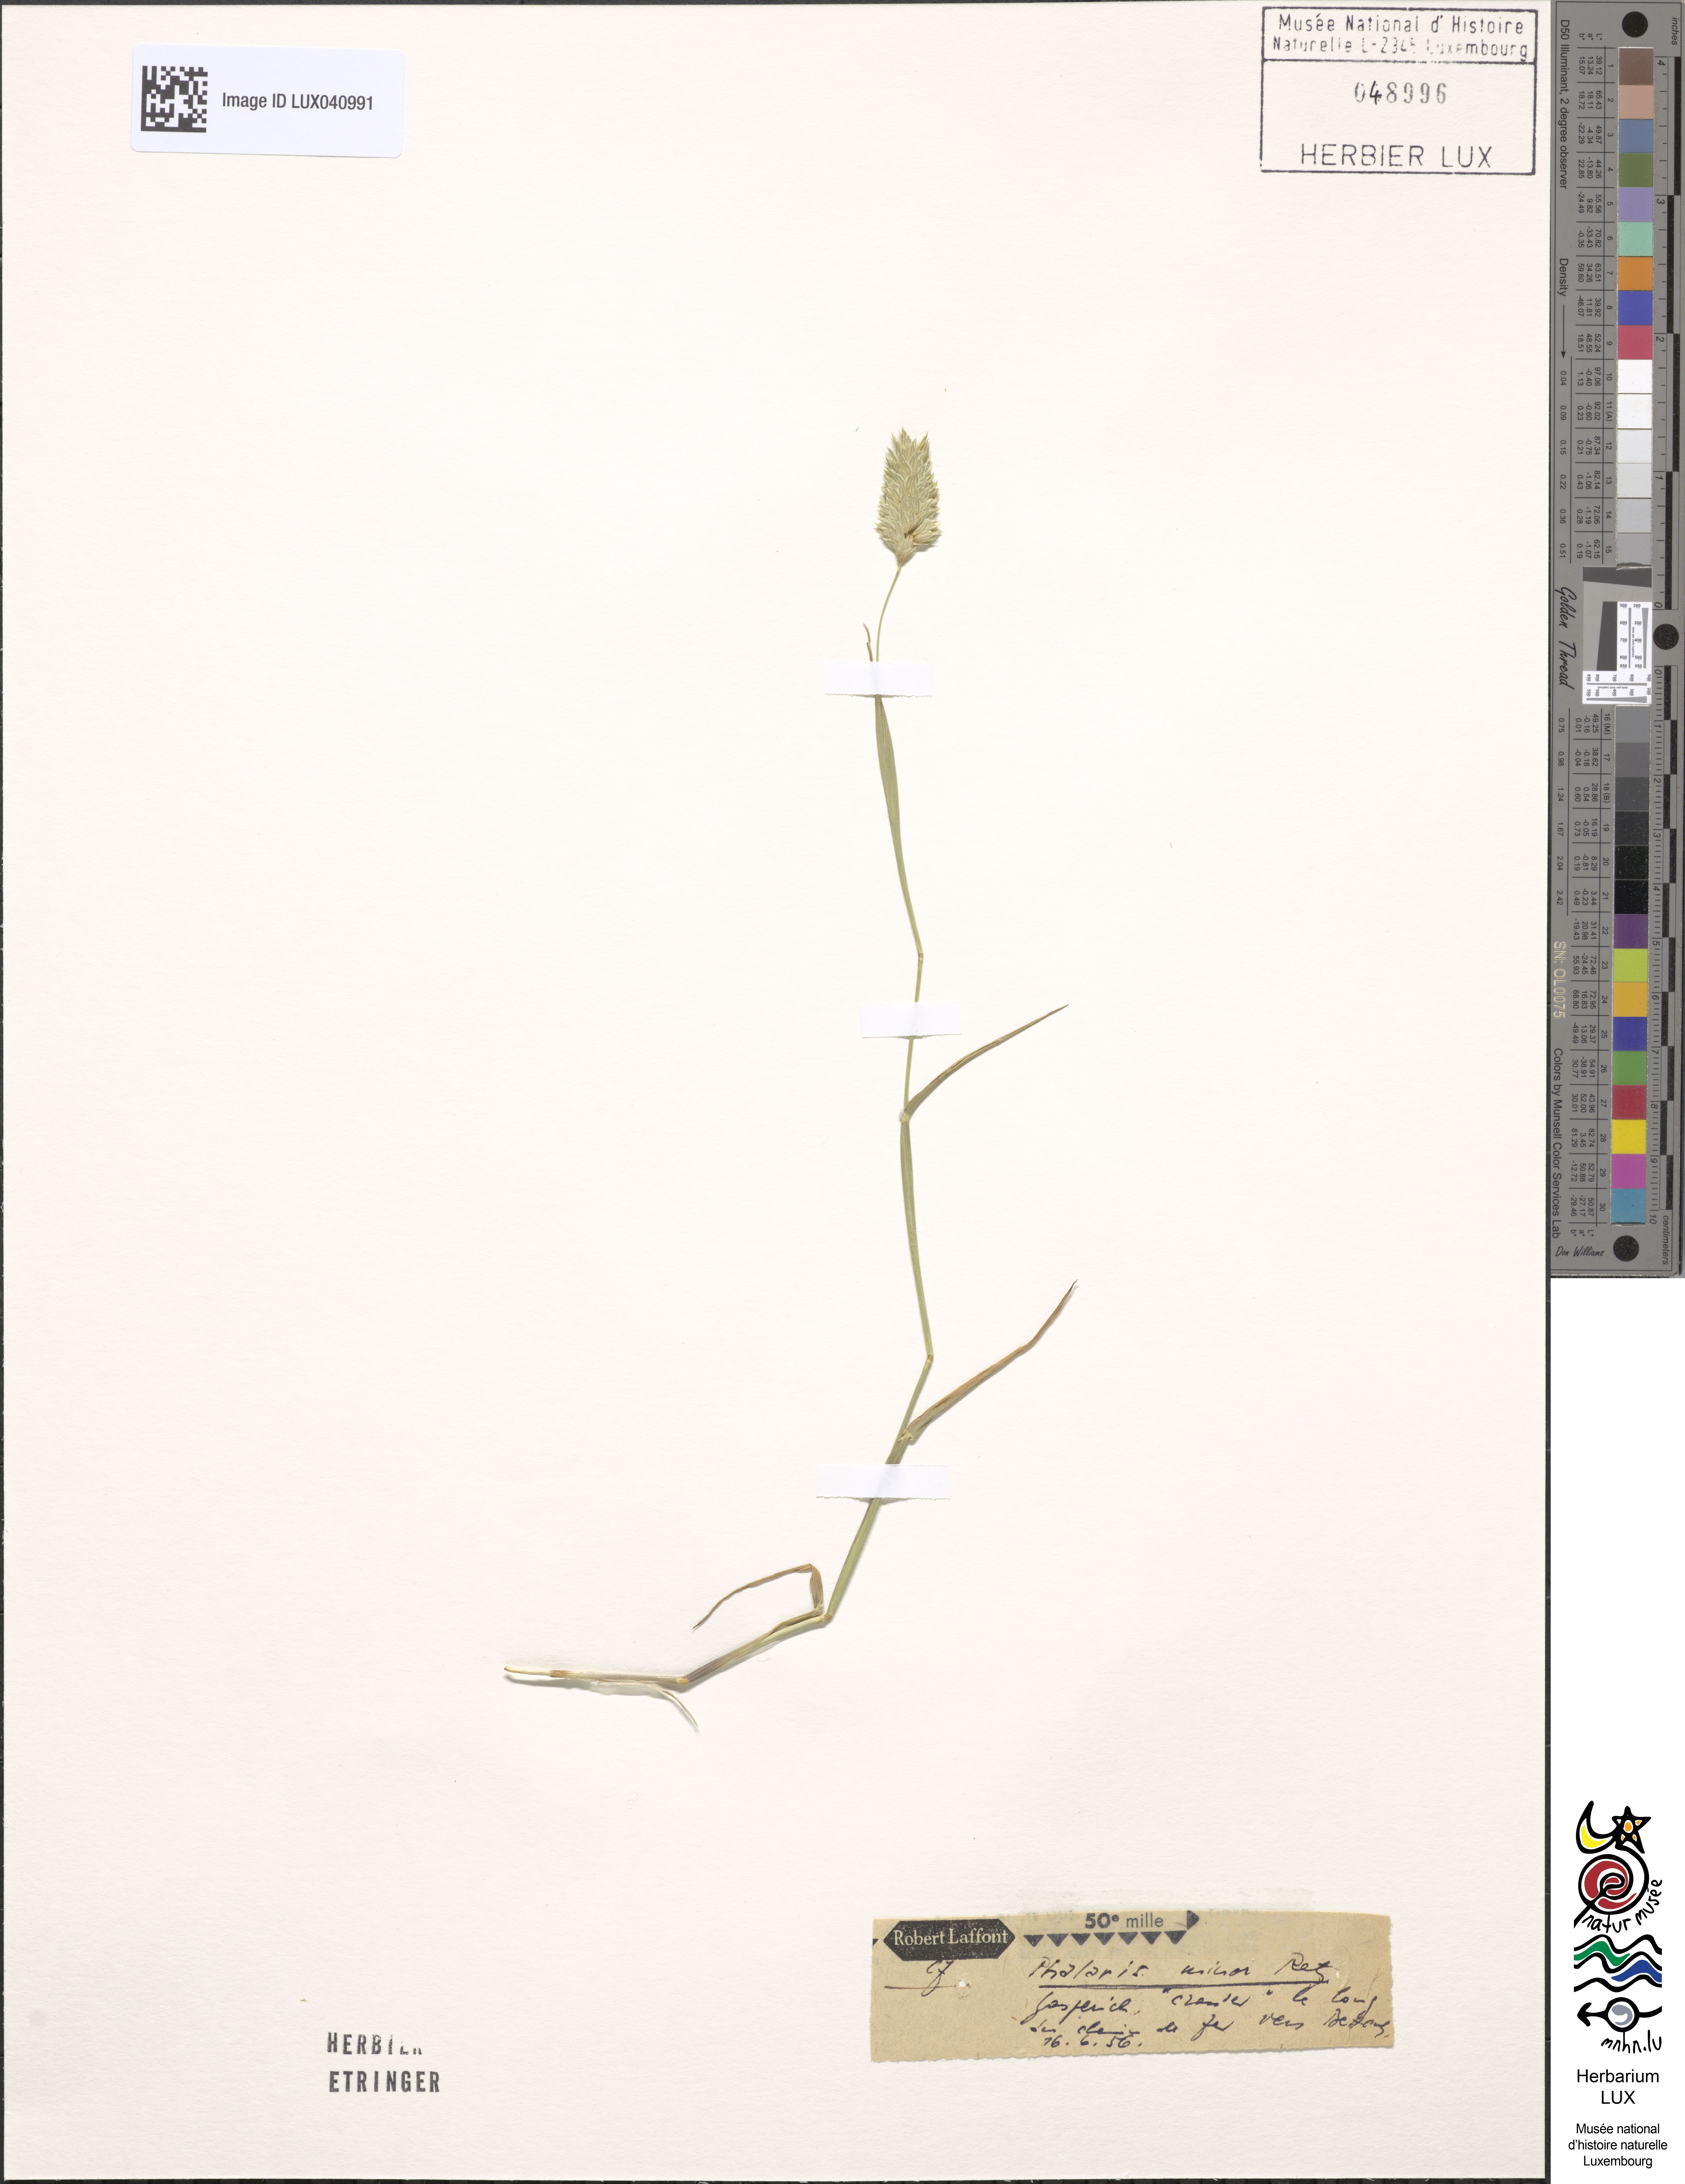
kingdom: Plantae
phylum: Tracheophyta
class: Liliopsida
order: Poales
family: Poaceae
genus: Phalaris
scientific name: Phalaris minor
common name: Littleseed canarygrass
